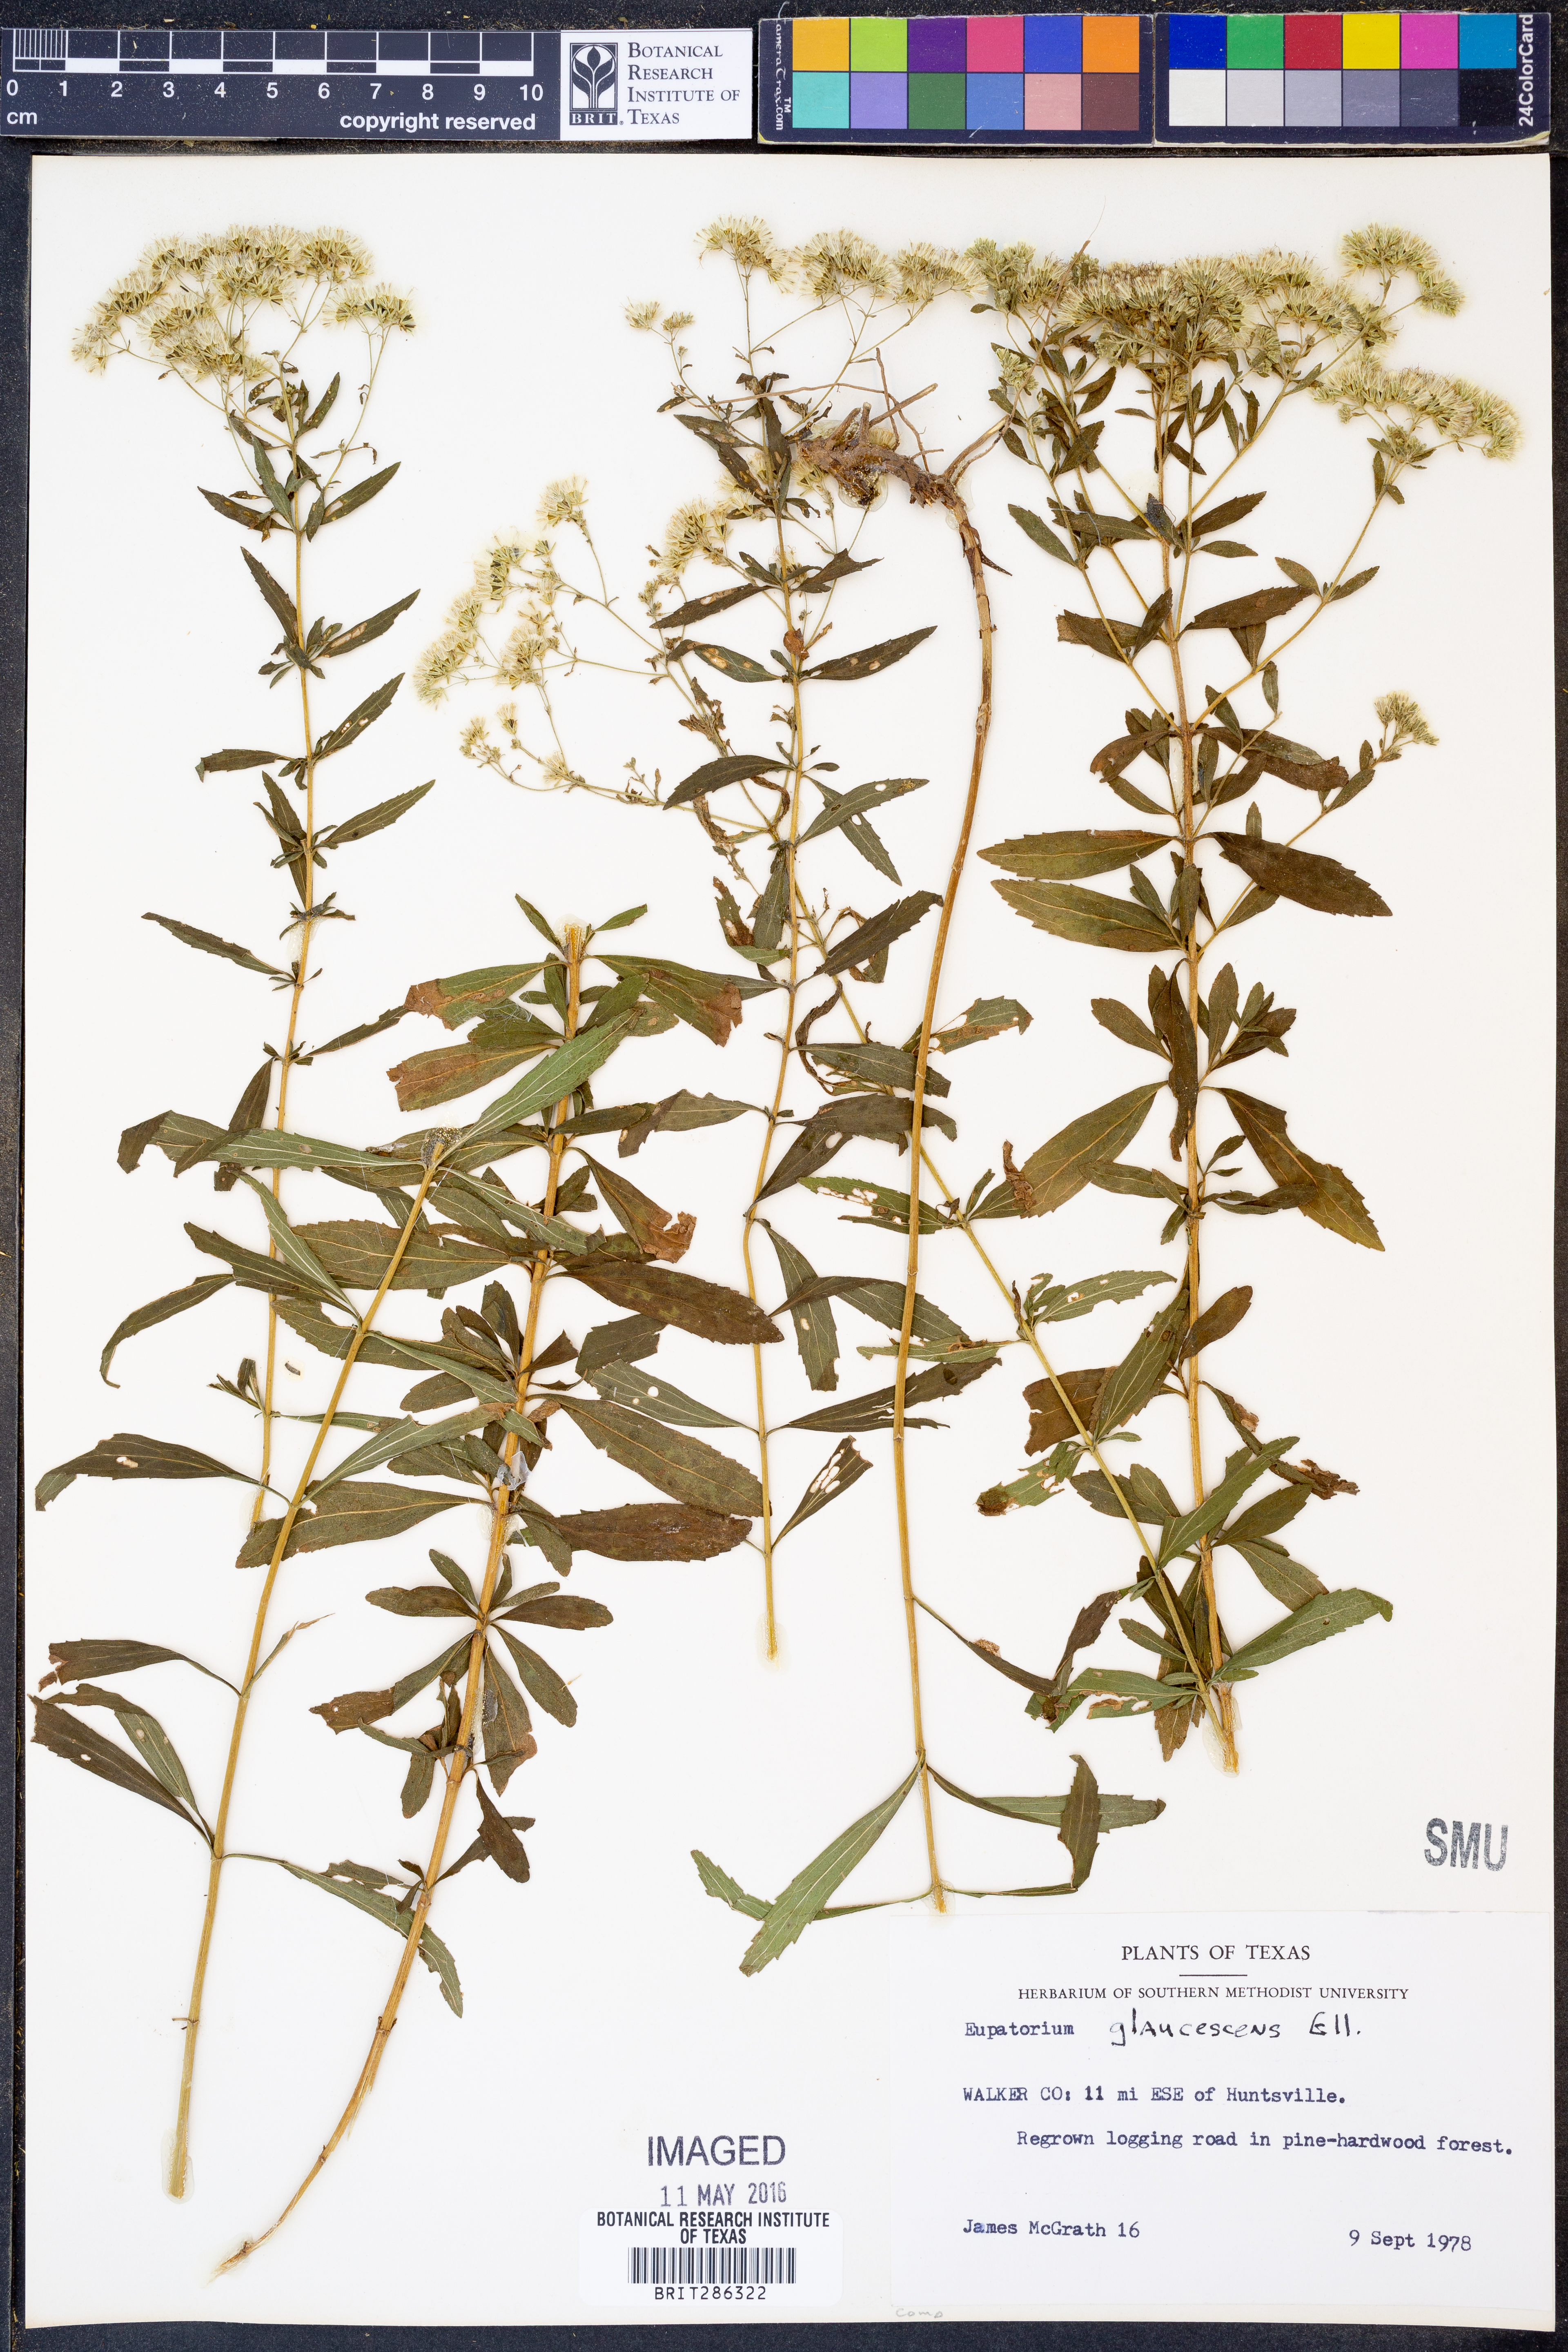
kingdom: Plantae
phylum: Tracheophyta
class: Magnoliopsida
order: Asterales
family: Asteraceae
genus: Eupatorium
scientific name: Eupatorium linearifolium
